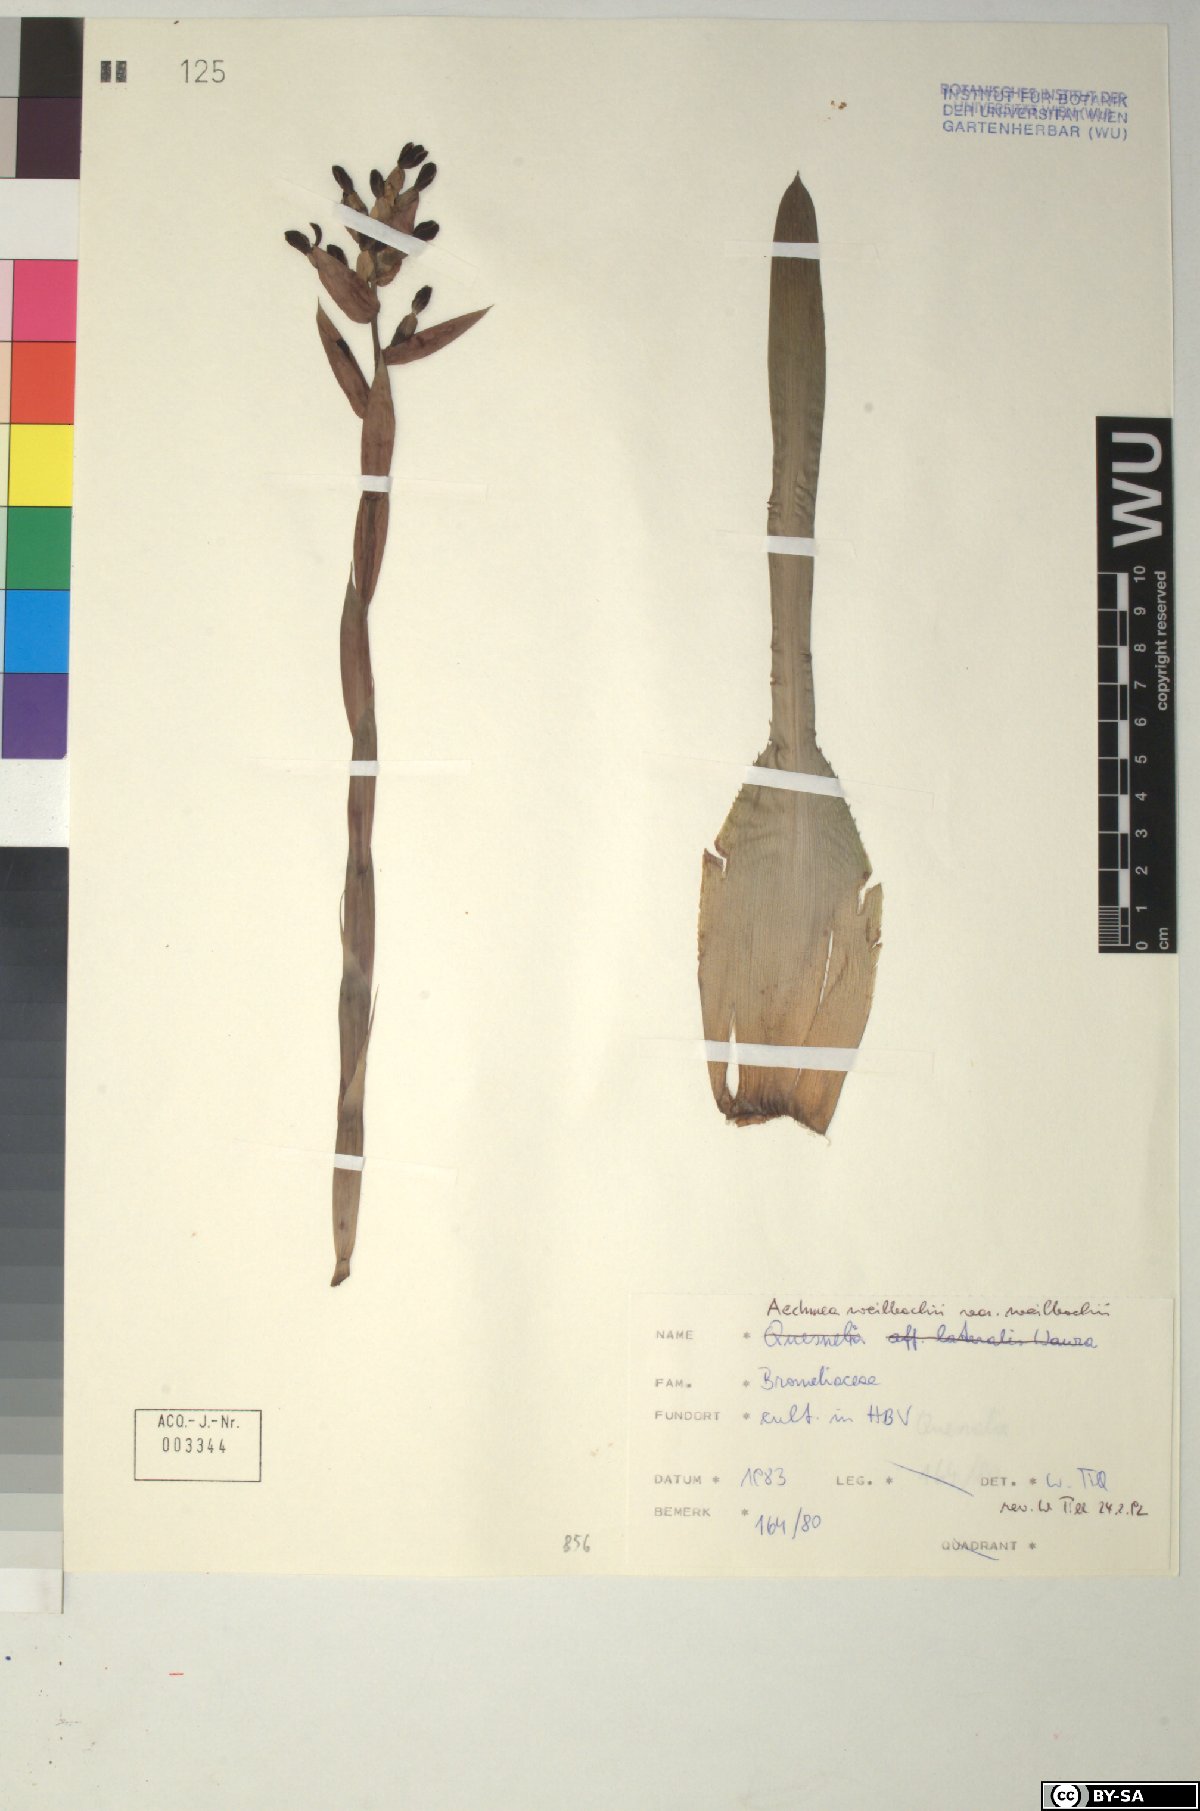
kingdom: Plantae
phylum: Tracheophyta
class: Liliopsida
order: Poales
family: Bromeliaceae
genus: Aechmea
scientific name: Aechmea
